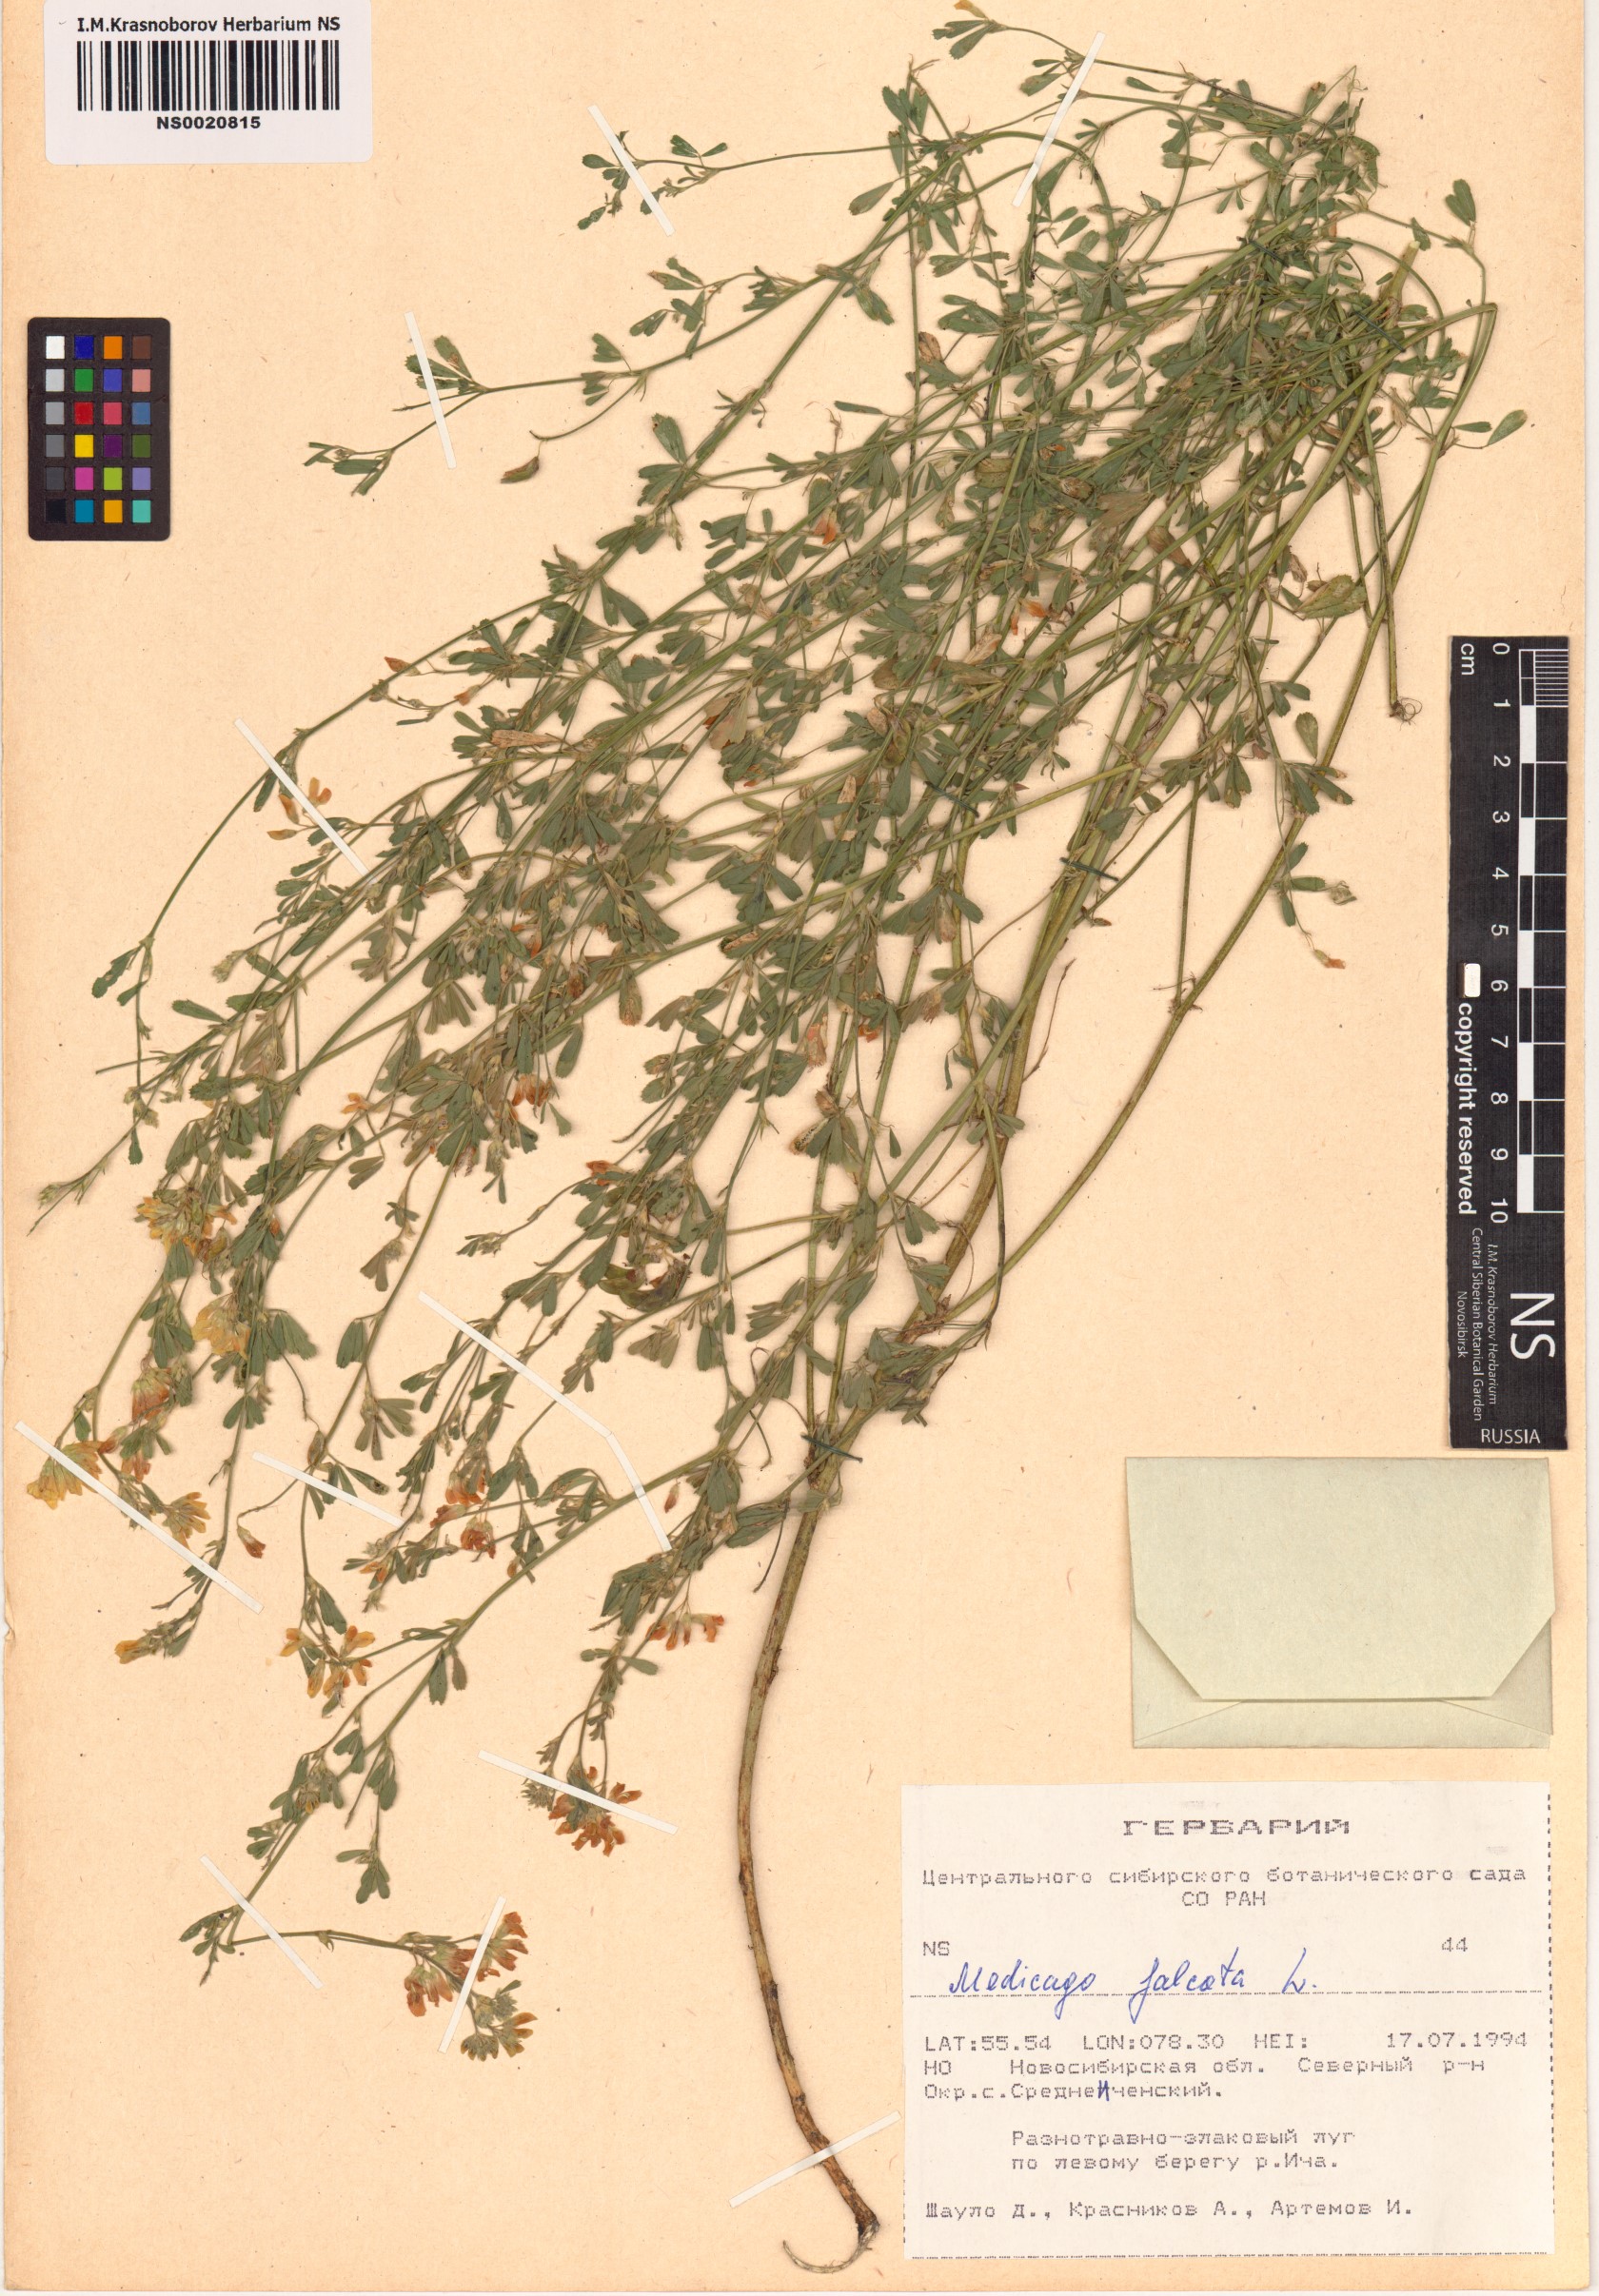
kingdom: Plantae
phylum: Tracheophyta
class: Magnoliopsida
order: Fabales
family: Fabaceae
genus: Medicago
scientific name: Medicago falcata
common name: Sickle medick
